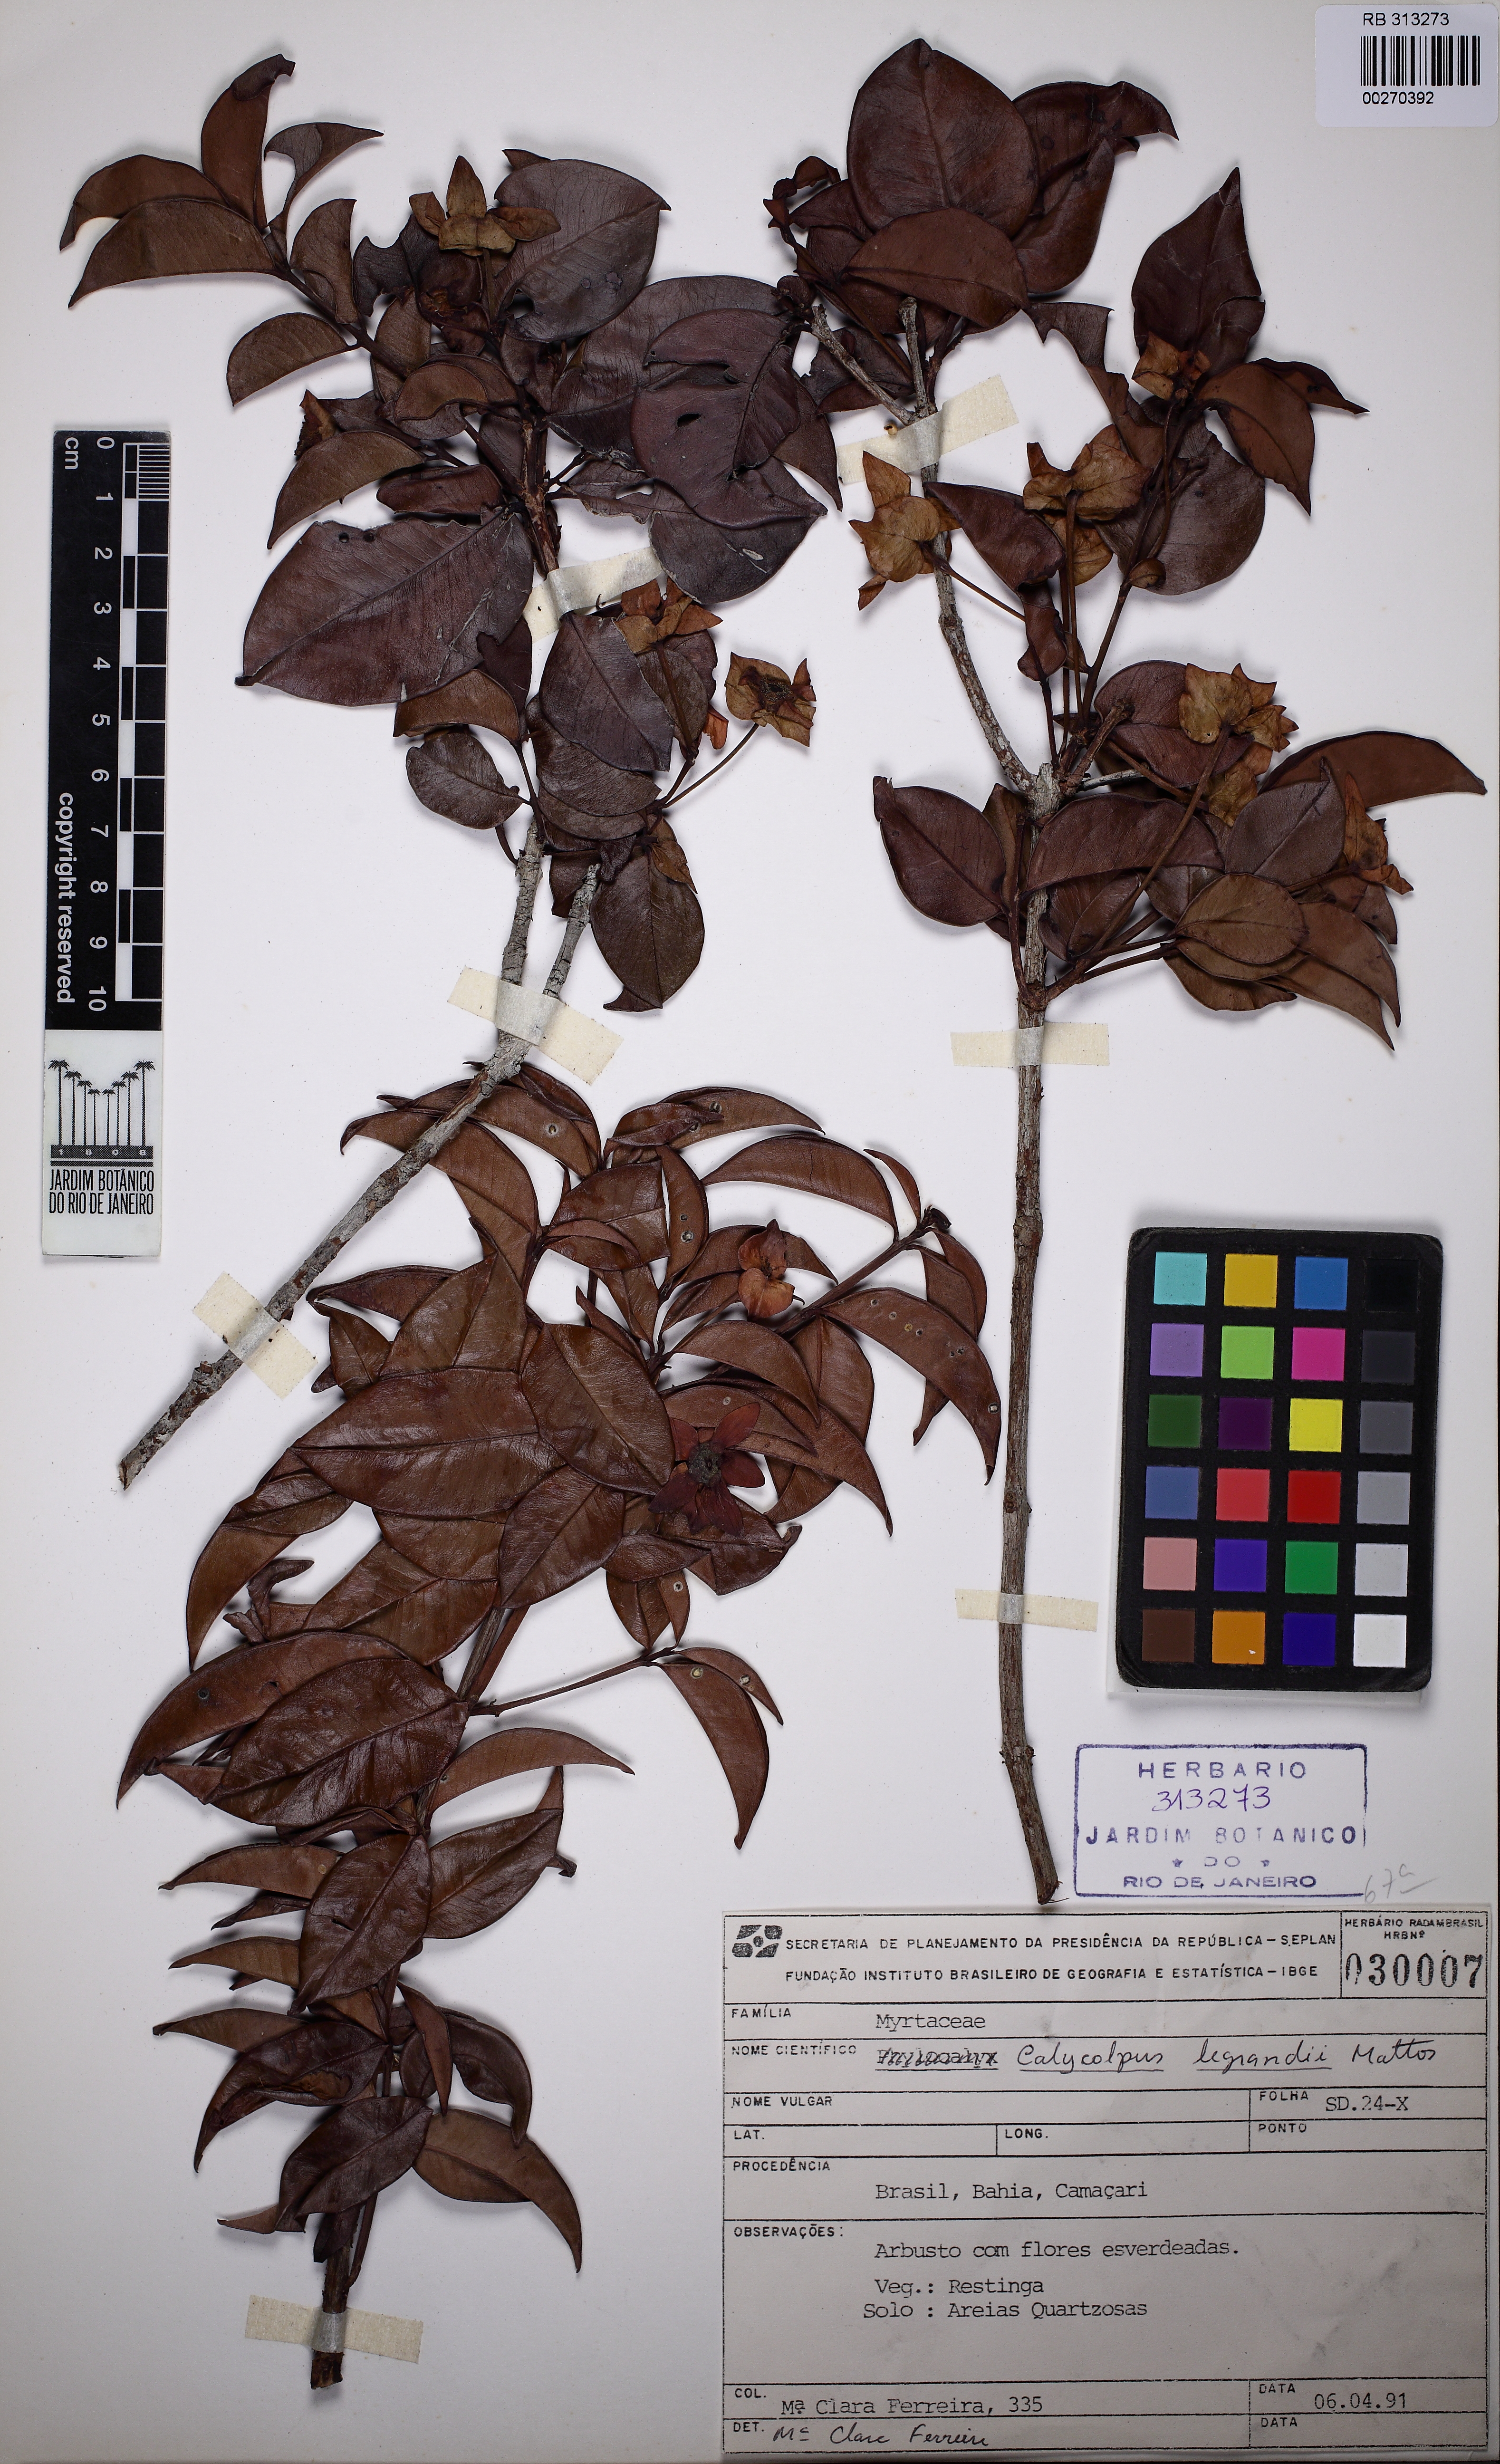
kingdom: Plantae
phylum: Tracheophyta
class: Magnoliopsida
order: Myrtales
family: Myrtaceae
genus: Calycolpus
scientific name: Calycolpus legrandii
